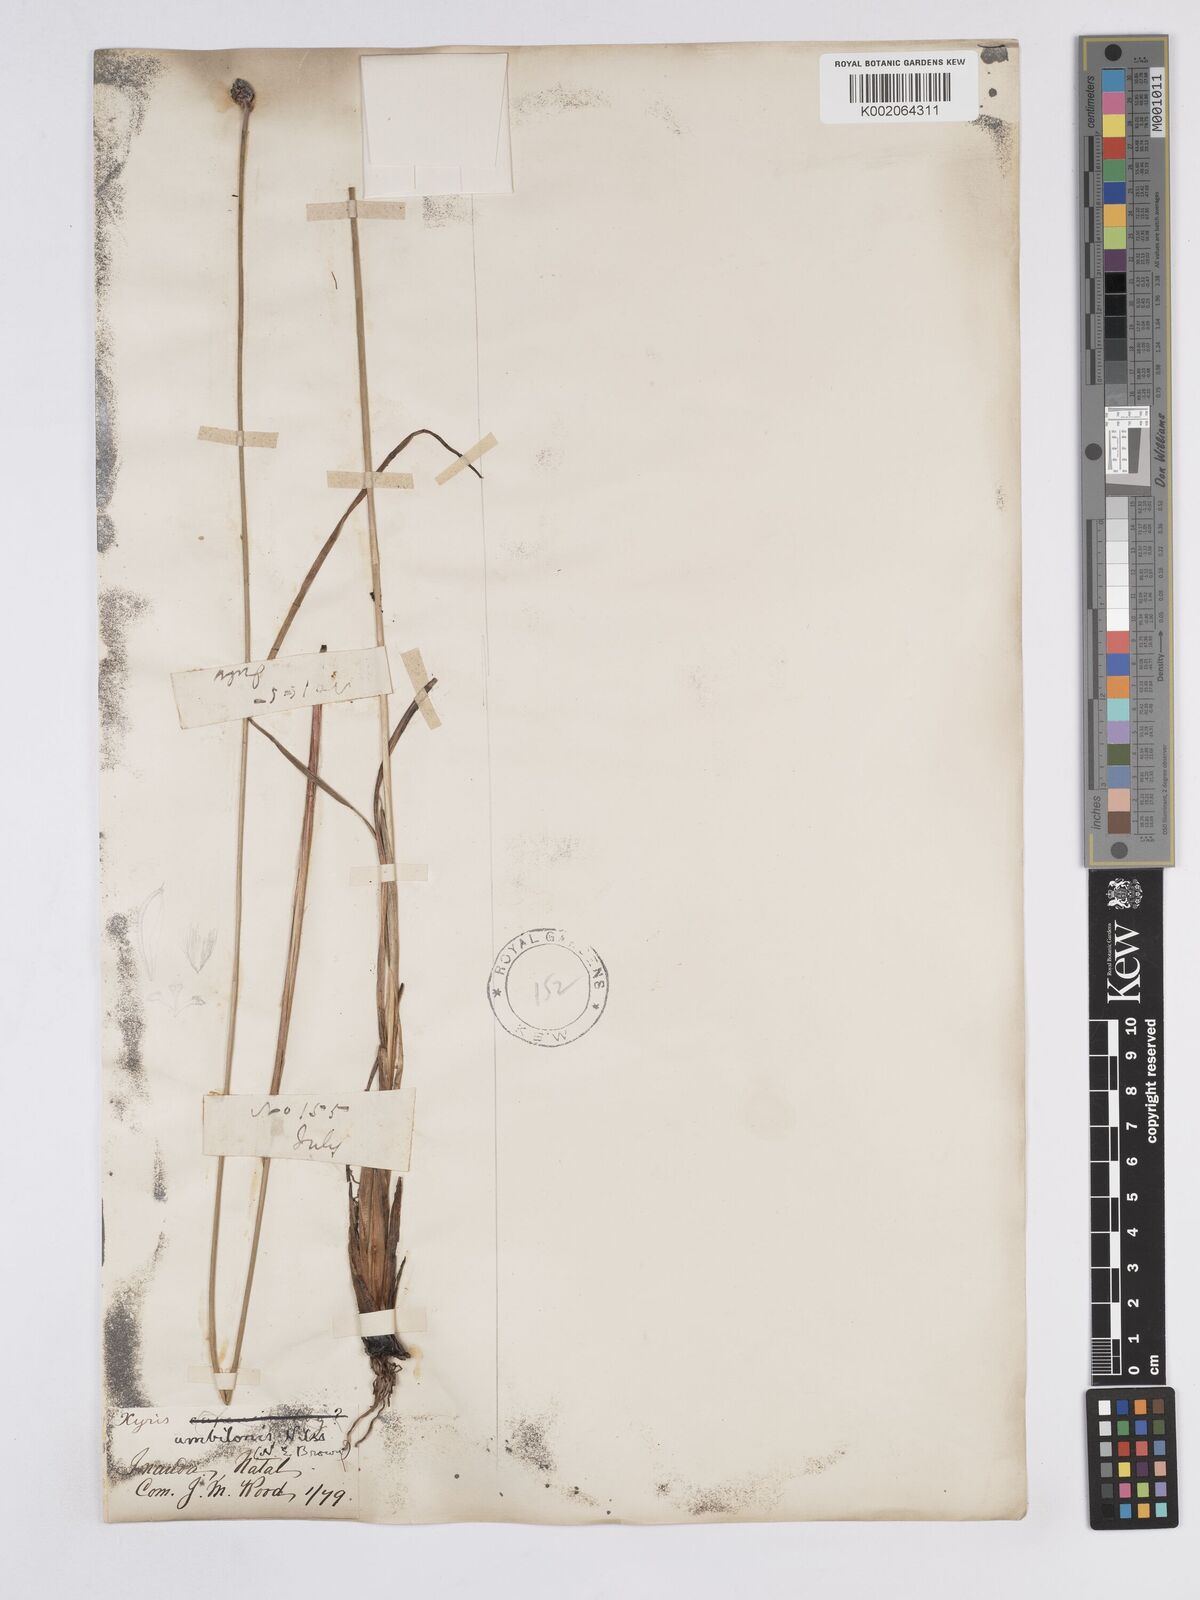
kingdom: Plantae
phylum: Tracheophyta
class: Liliopsida
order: Poales
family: Xyridaceae
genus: Xyris
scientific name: Xyris congensis
